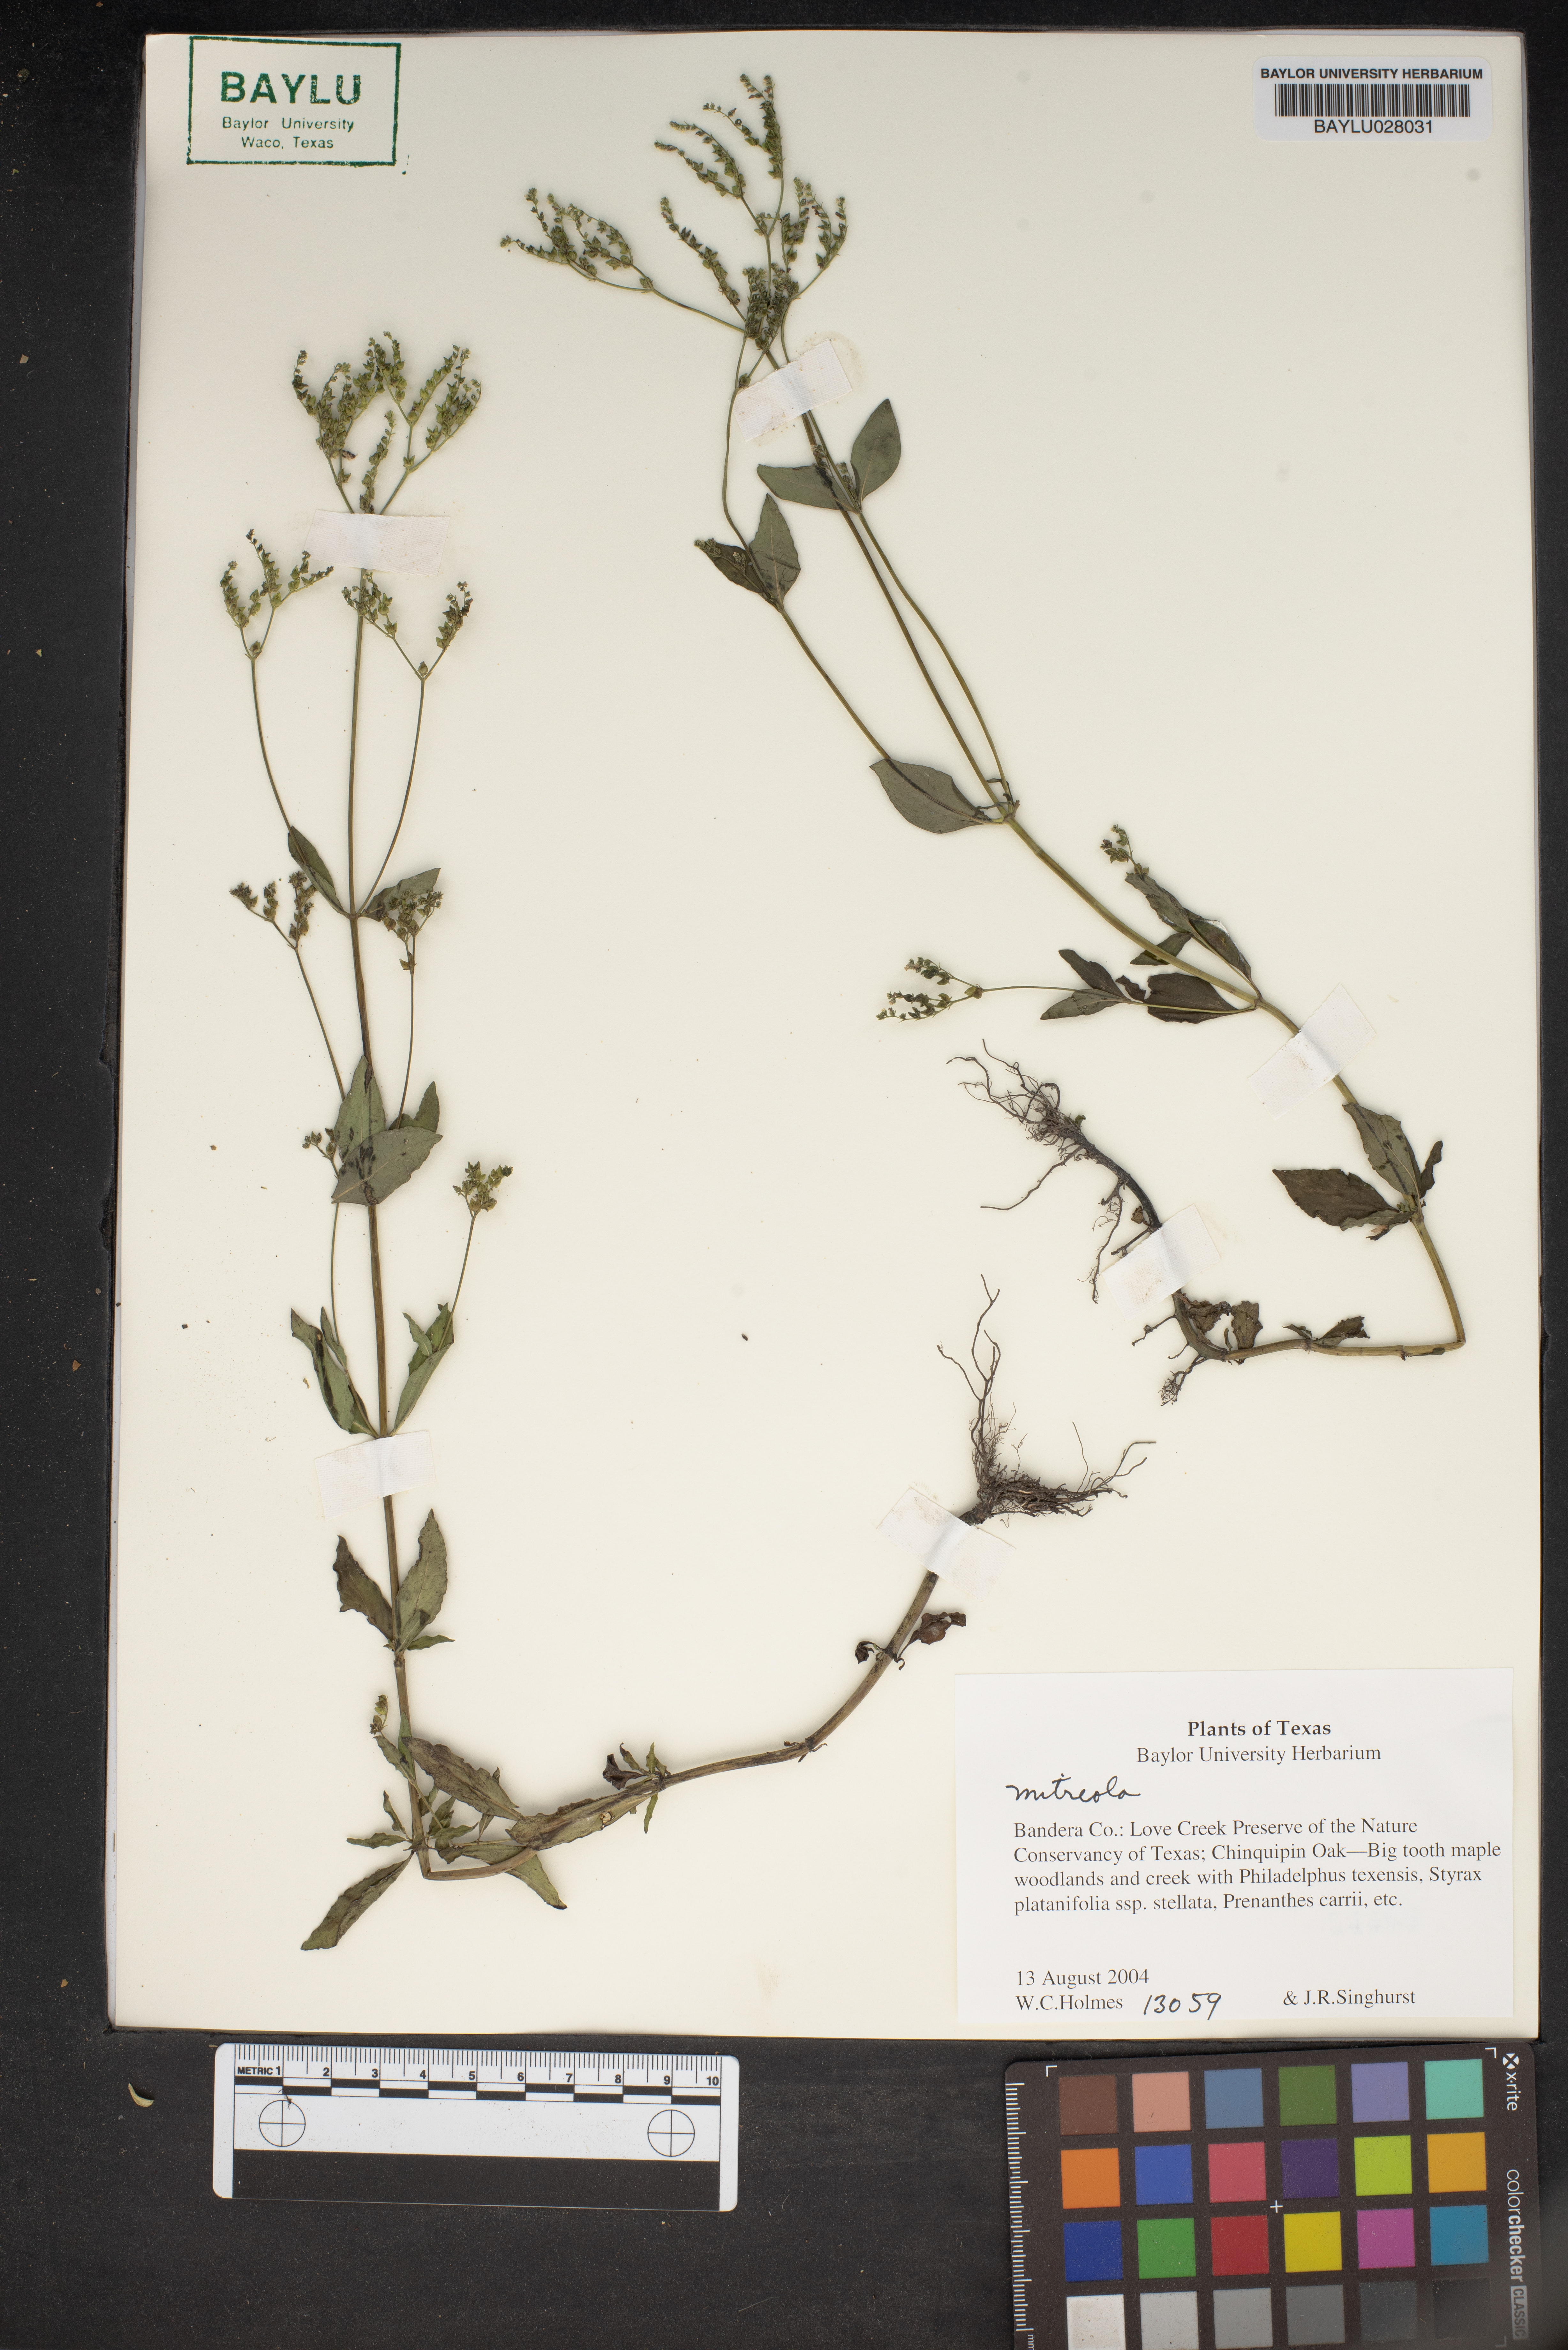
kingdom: Plantae
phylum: Tracheophyta
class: Magnoliopsida
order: Gentianales
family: Loganiaceae
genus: Mitreola
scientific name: Mitreola
